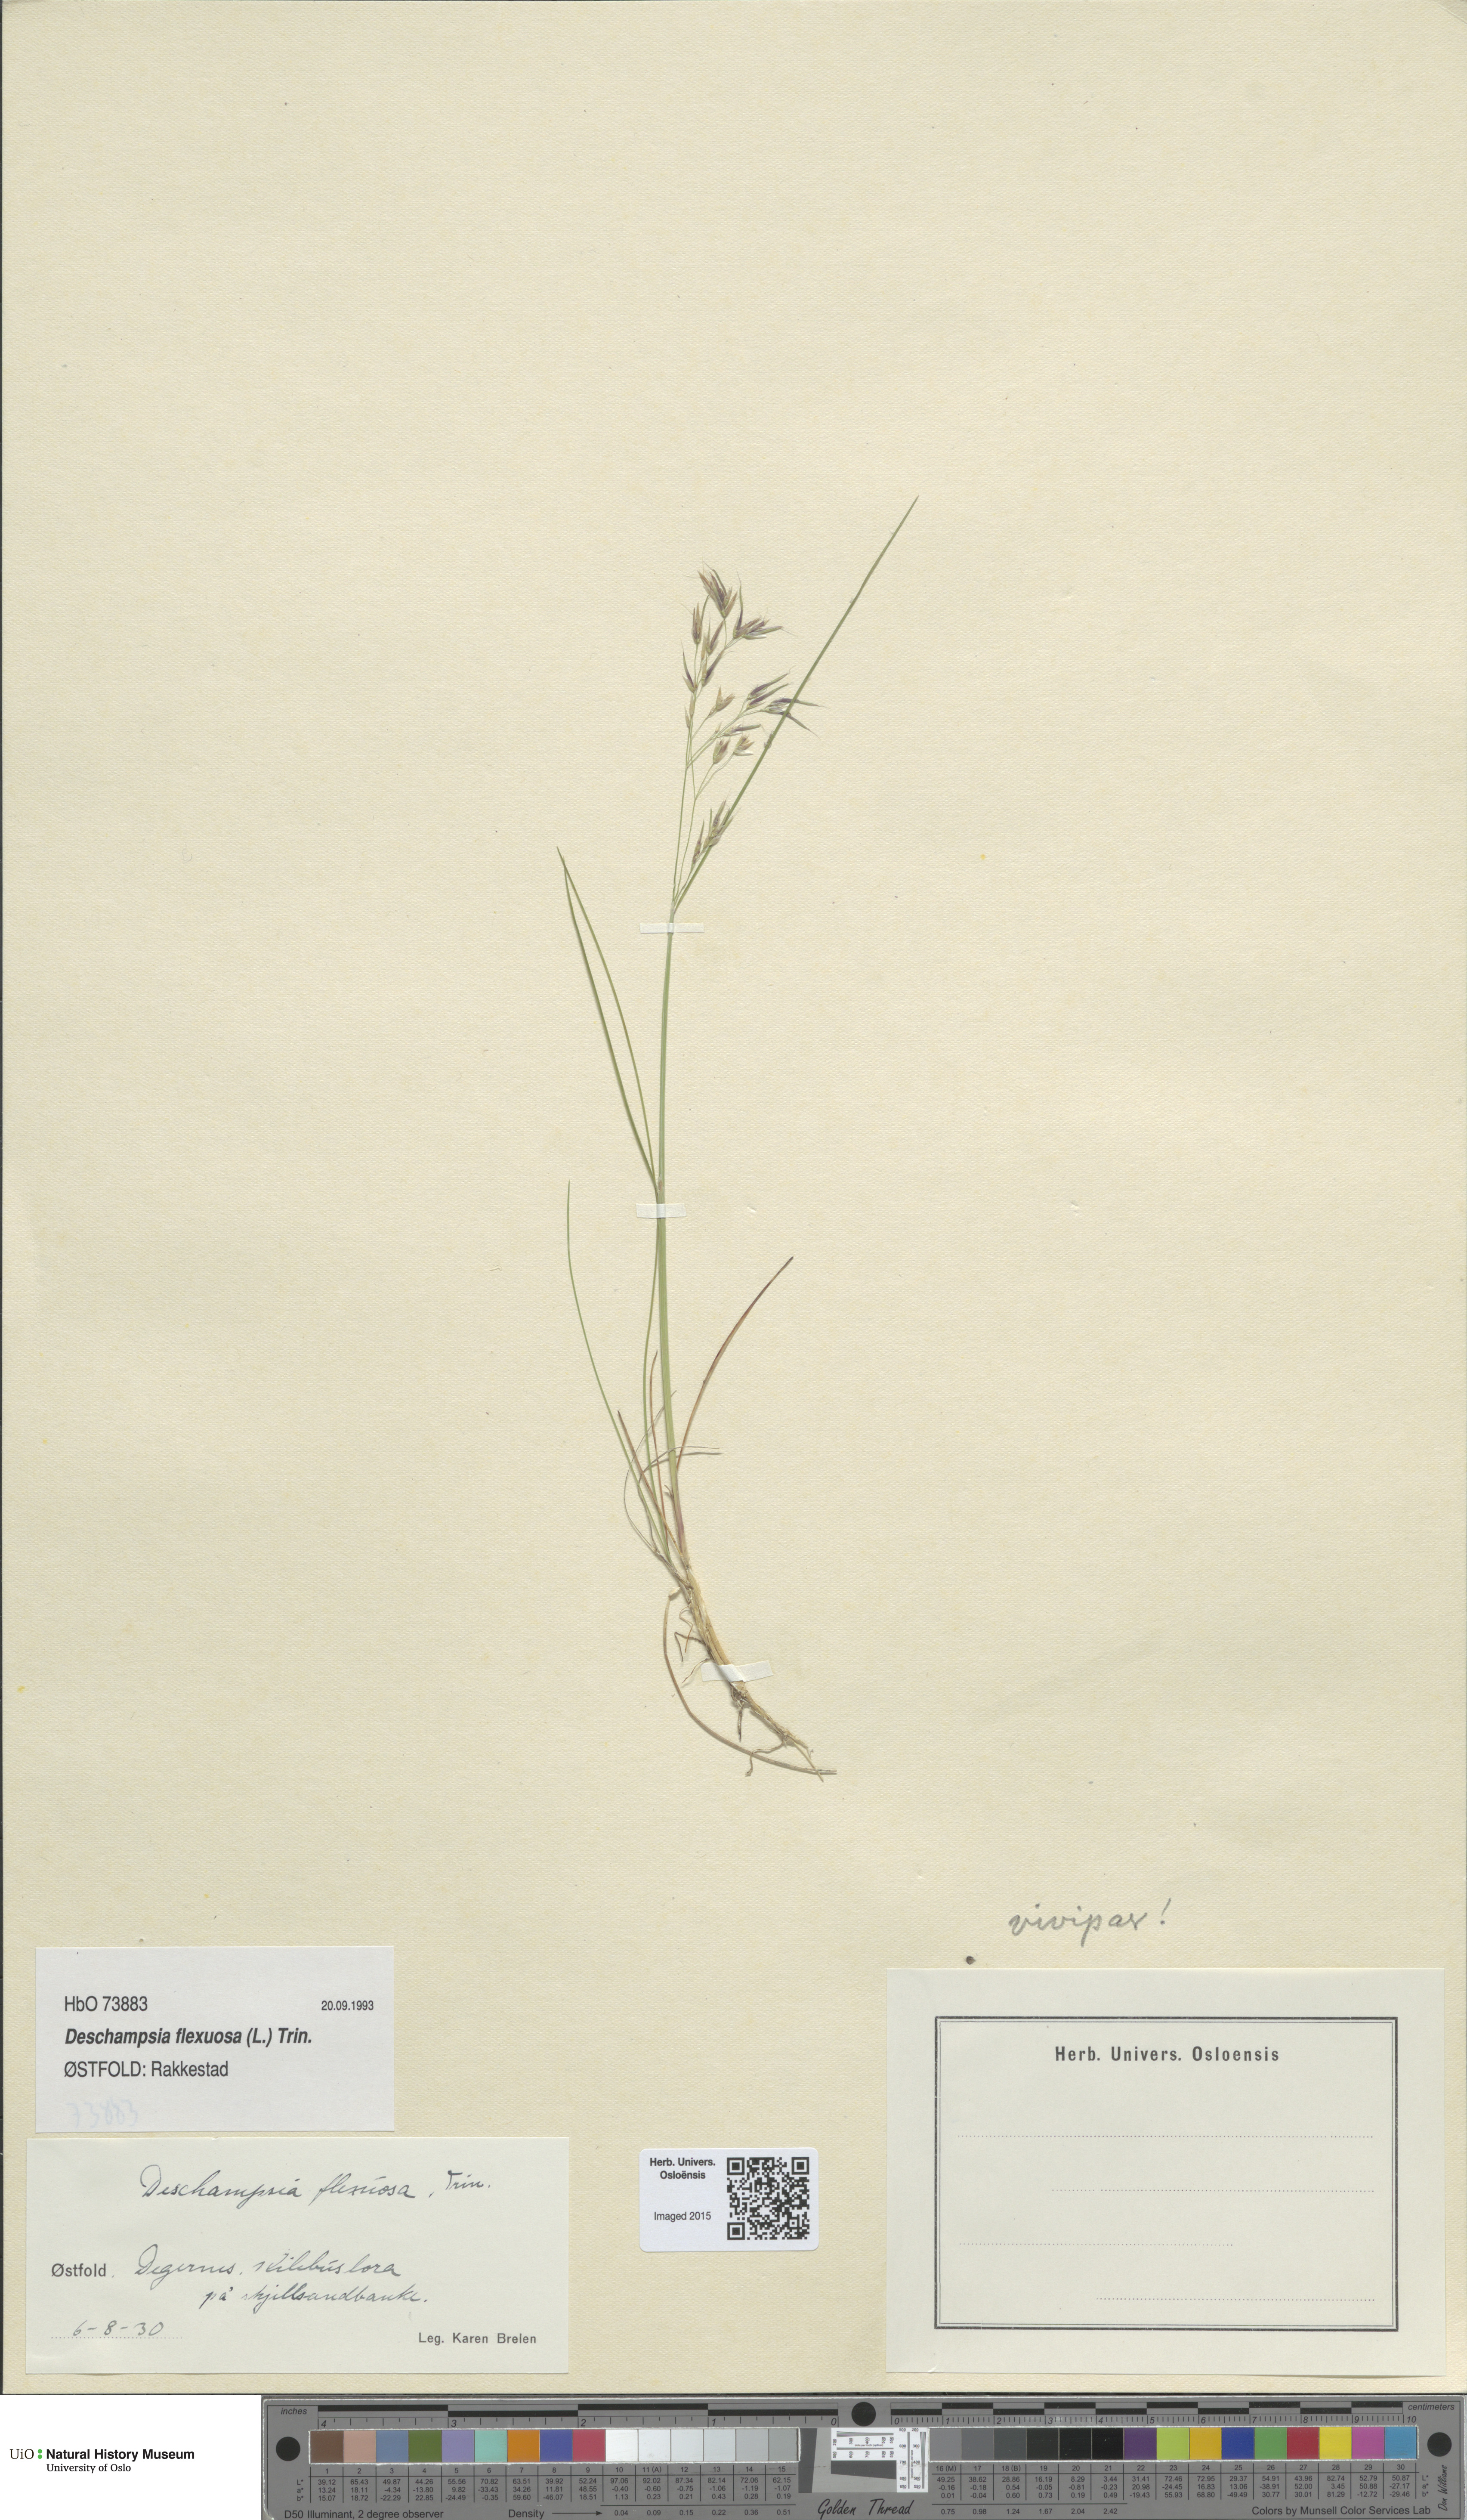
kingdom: Plantae
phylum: Tracheophyta
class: Liliopsida
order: Poales
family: Poaceae
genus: Avenella
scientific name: Avenella flexuosa
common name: Wavy hairgrass
